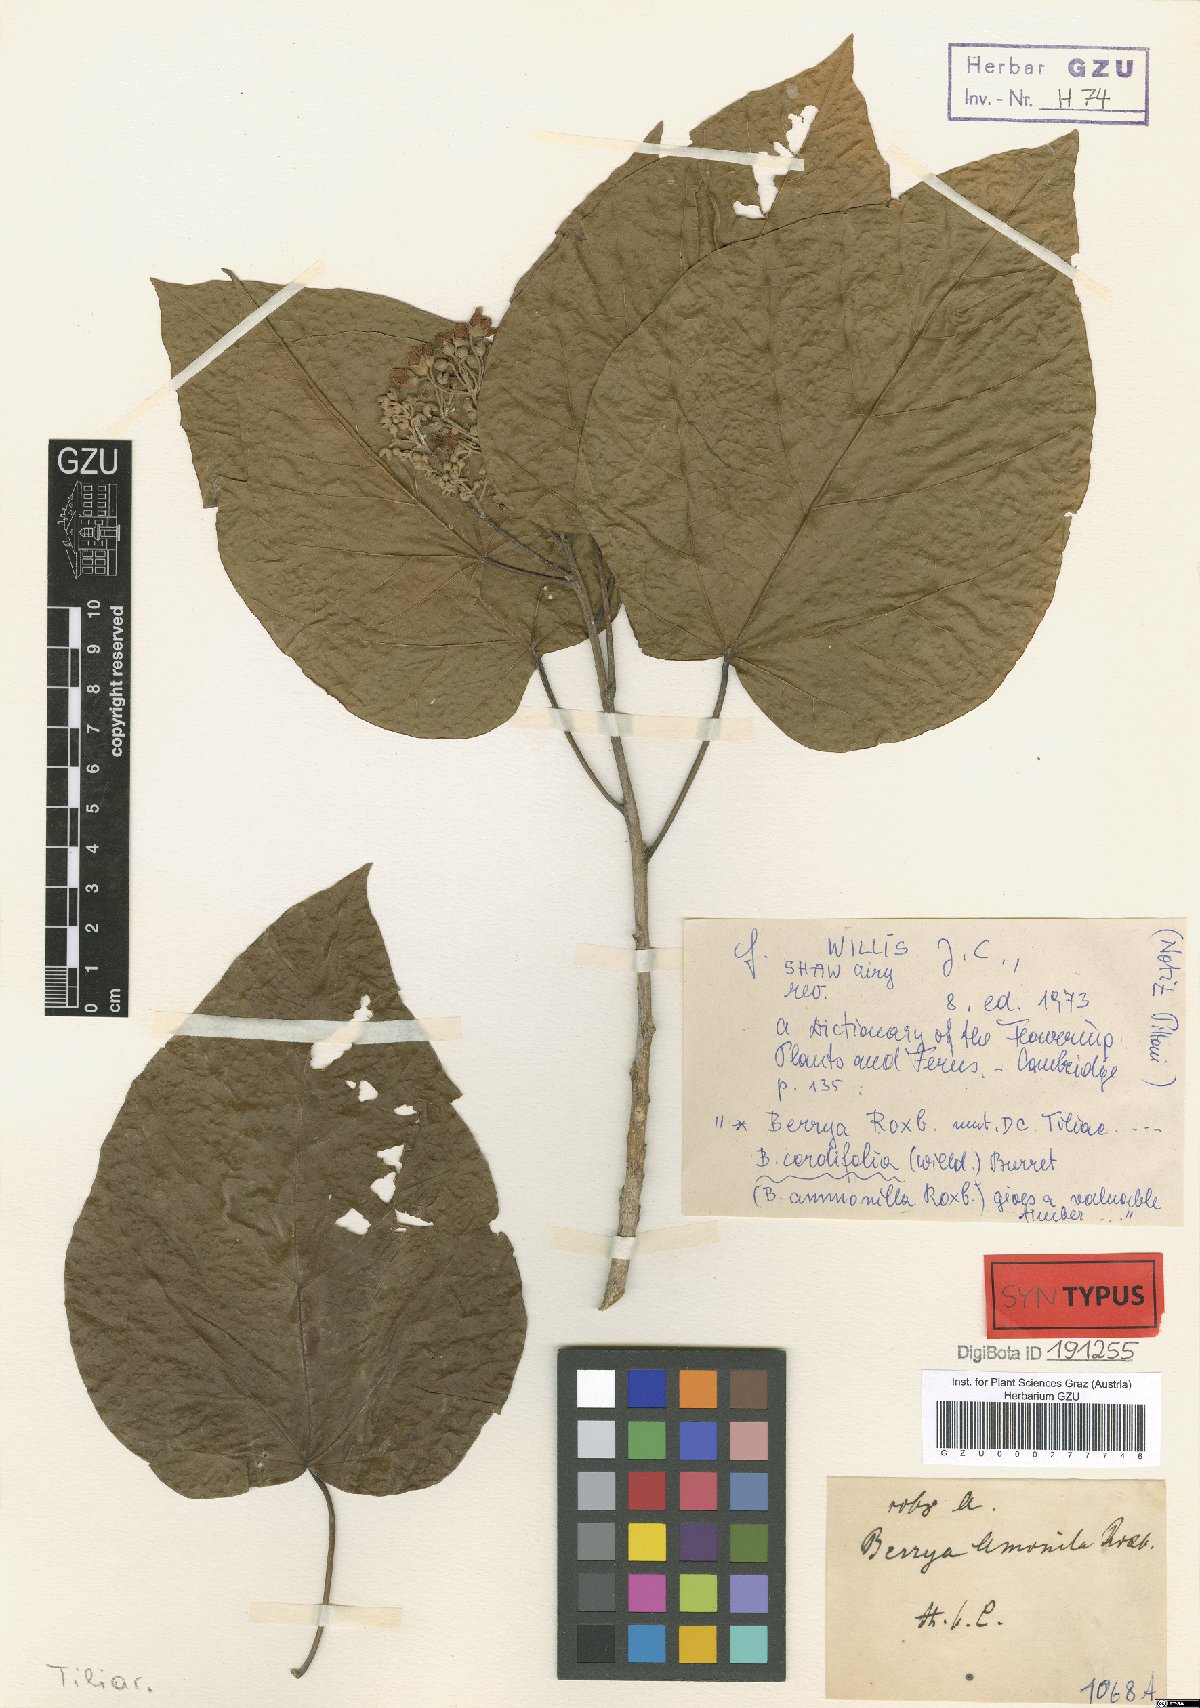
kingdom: Plantae
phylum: Tracheophyta
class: Magnoliopsida
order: Malvales
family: Malvaceae
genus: Berrya
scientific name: Berrya cordifolia
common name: Trincomalee
